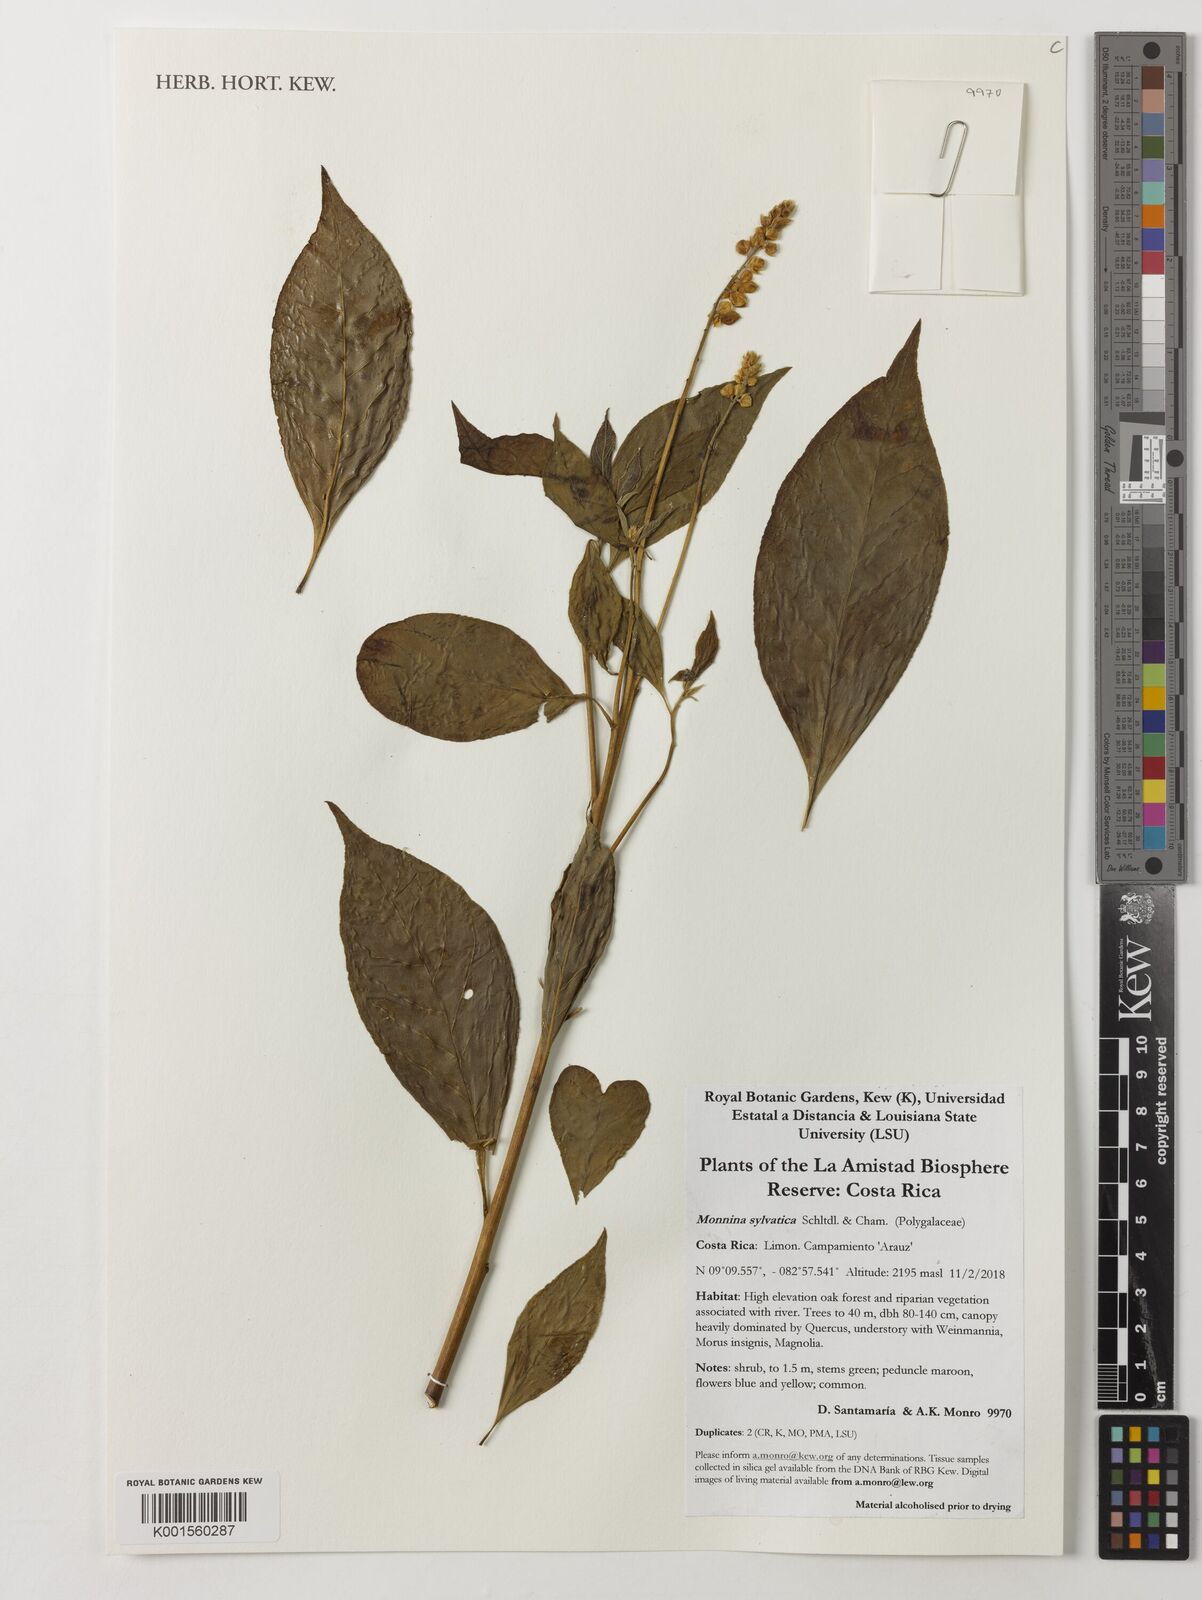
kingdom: Plantae
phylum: Tracheophyta
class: Magnoliopsida
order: Fabales
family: Polygalaceae
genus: Monnina
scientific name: Monnina sylvatica
